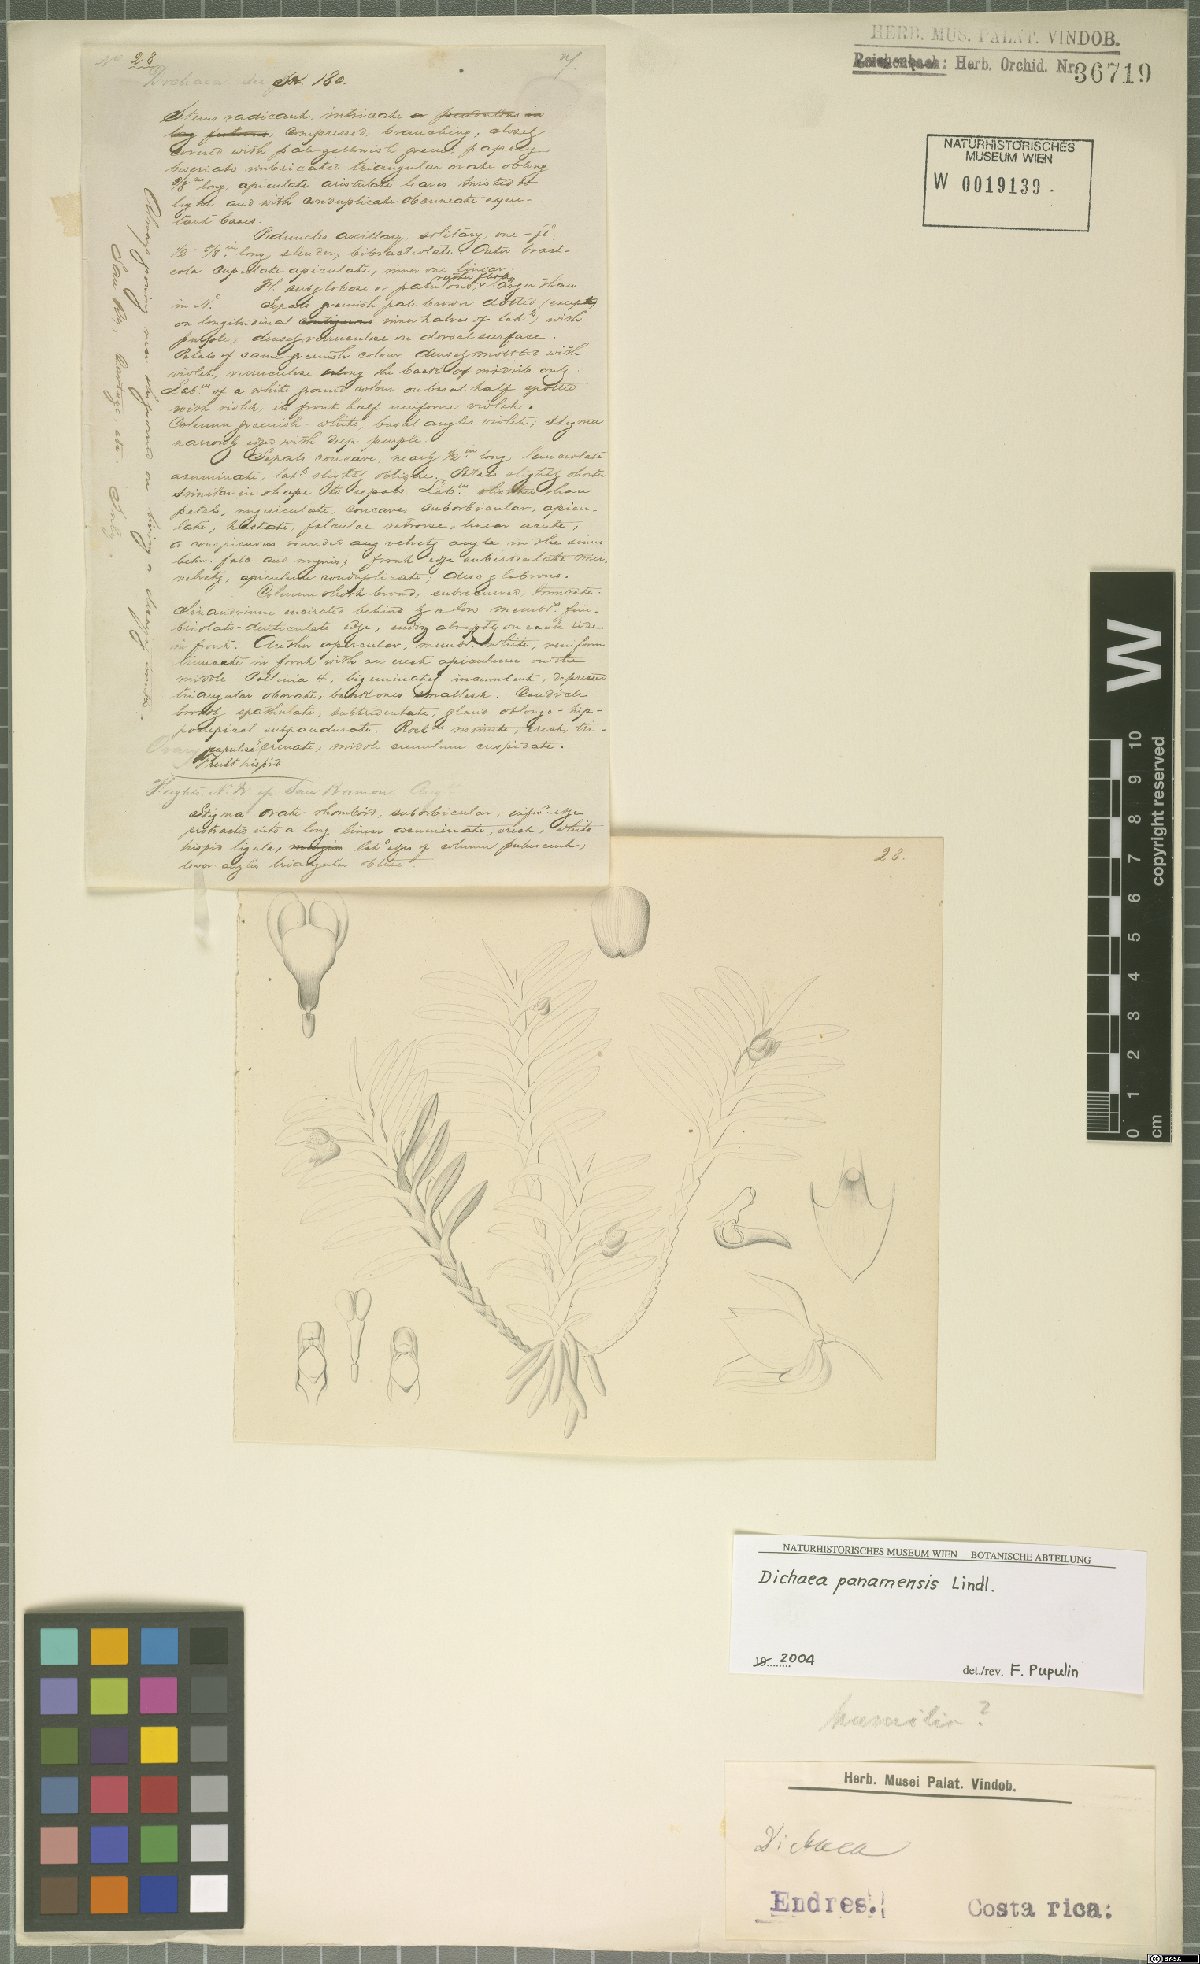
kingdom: Plantae
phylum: Tracheophyta
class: Liliopsida
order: Asparagales
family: Orchidaceae
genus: Dichaea
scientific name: Dichaea panamensis
